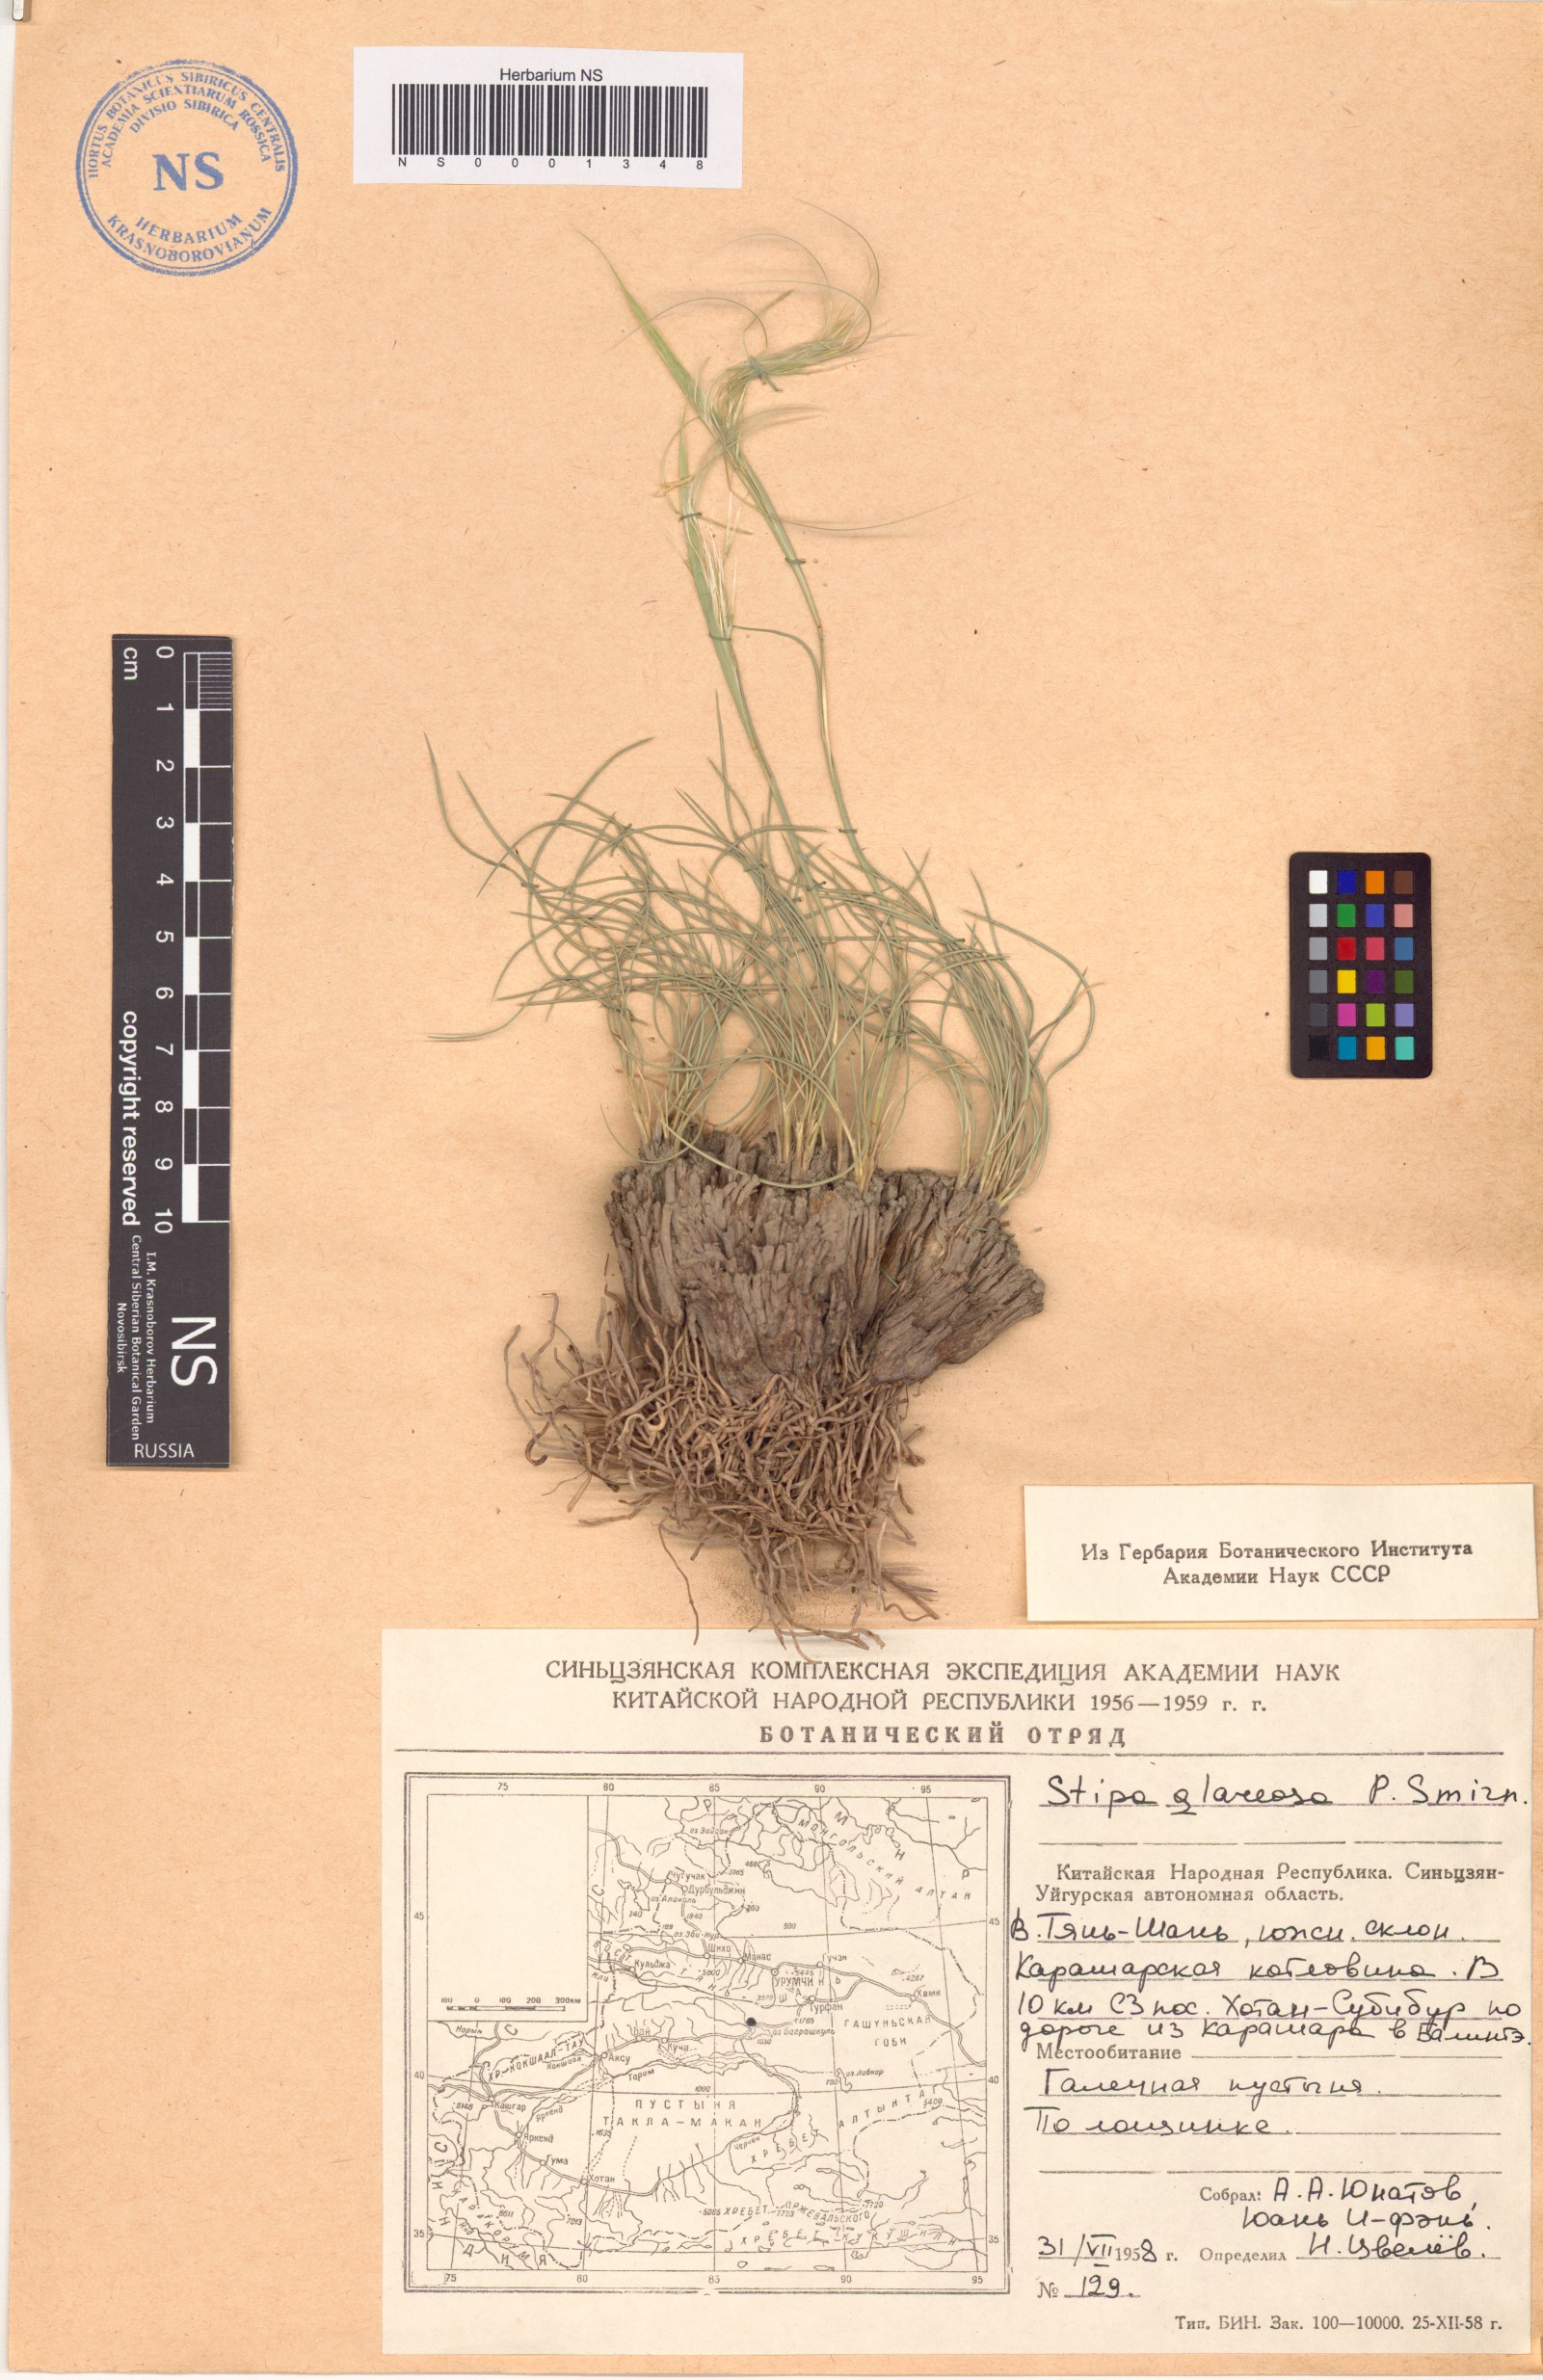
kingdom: Plantae
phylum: Tracheophyta
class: Liliopsida
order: Poales
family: Poaceae
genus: Stipa
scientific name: Stipa glareosa
